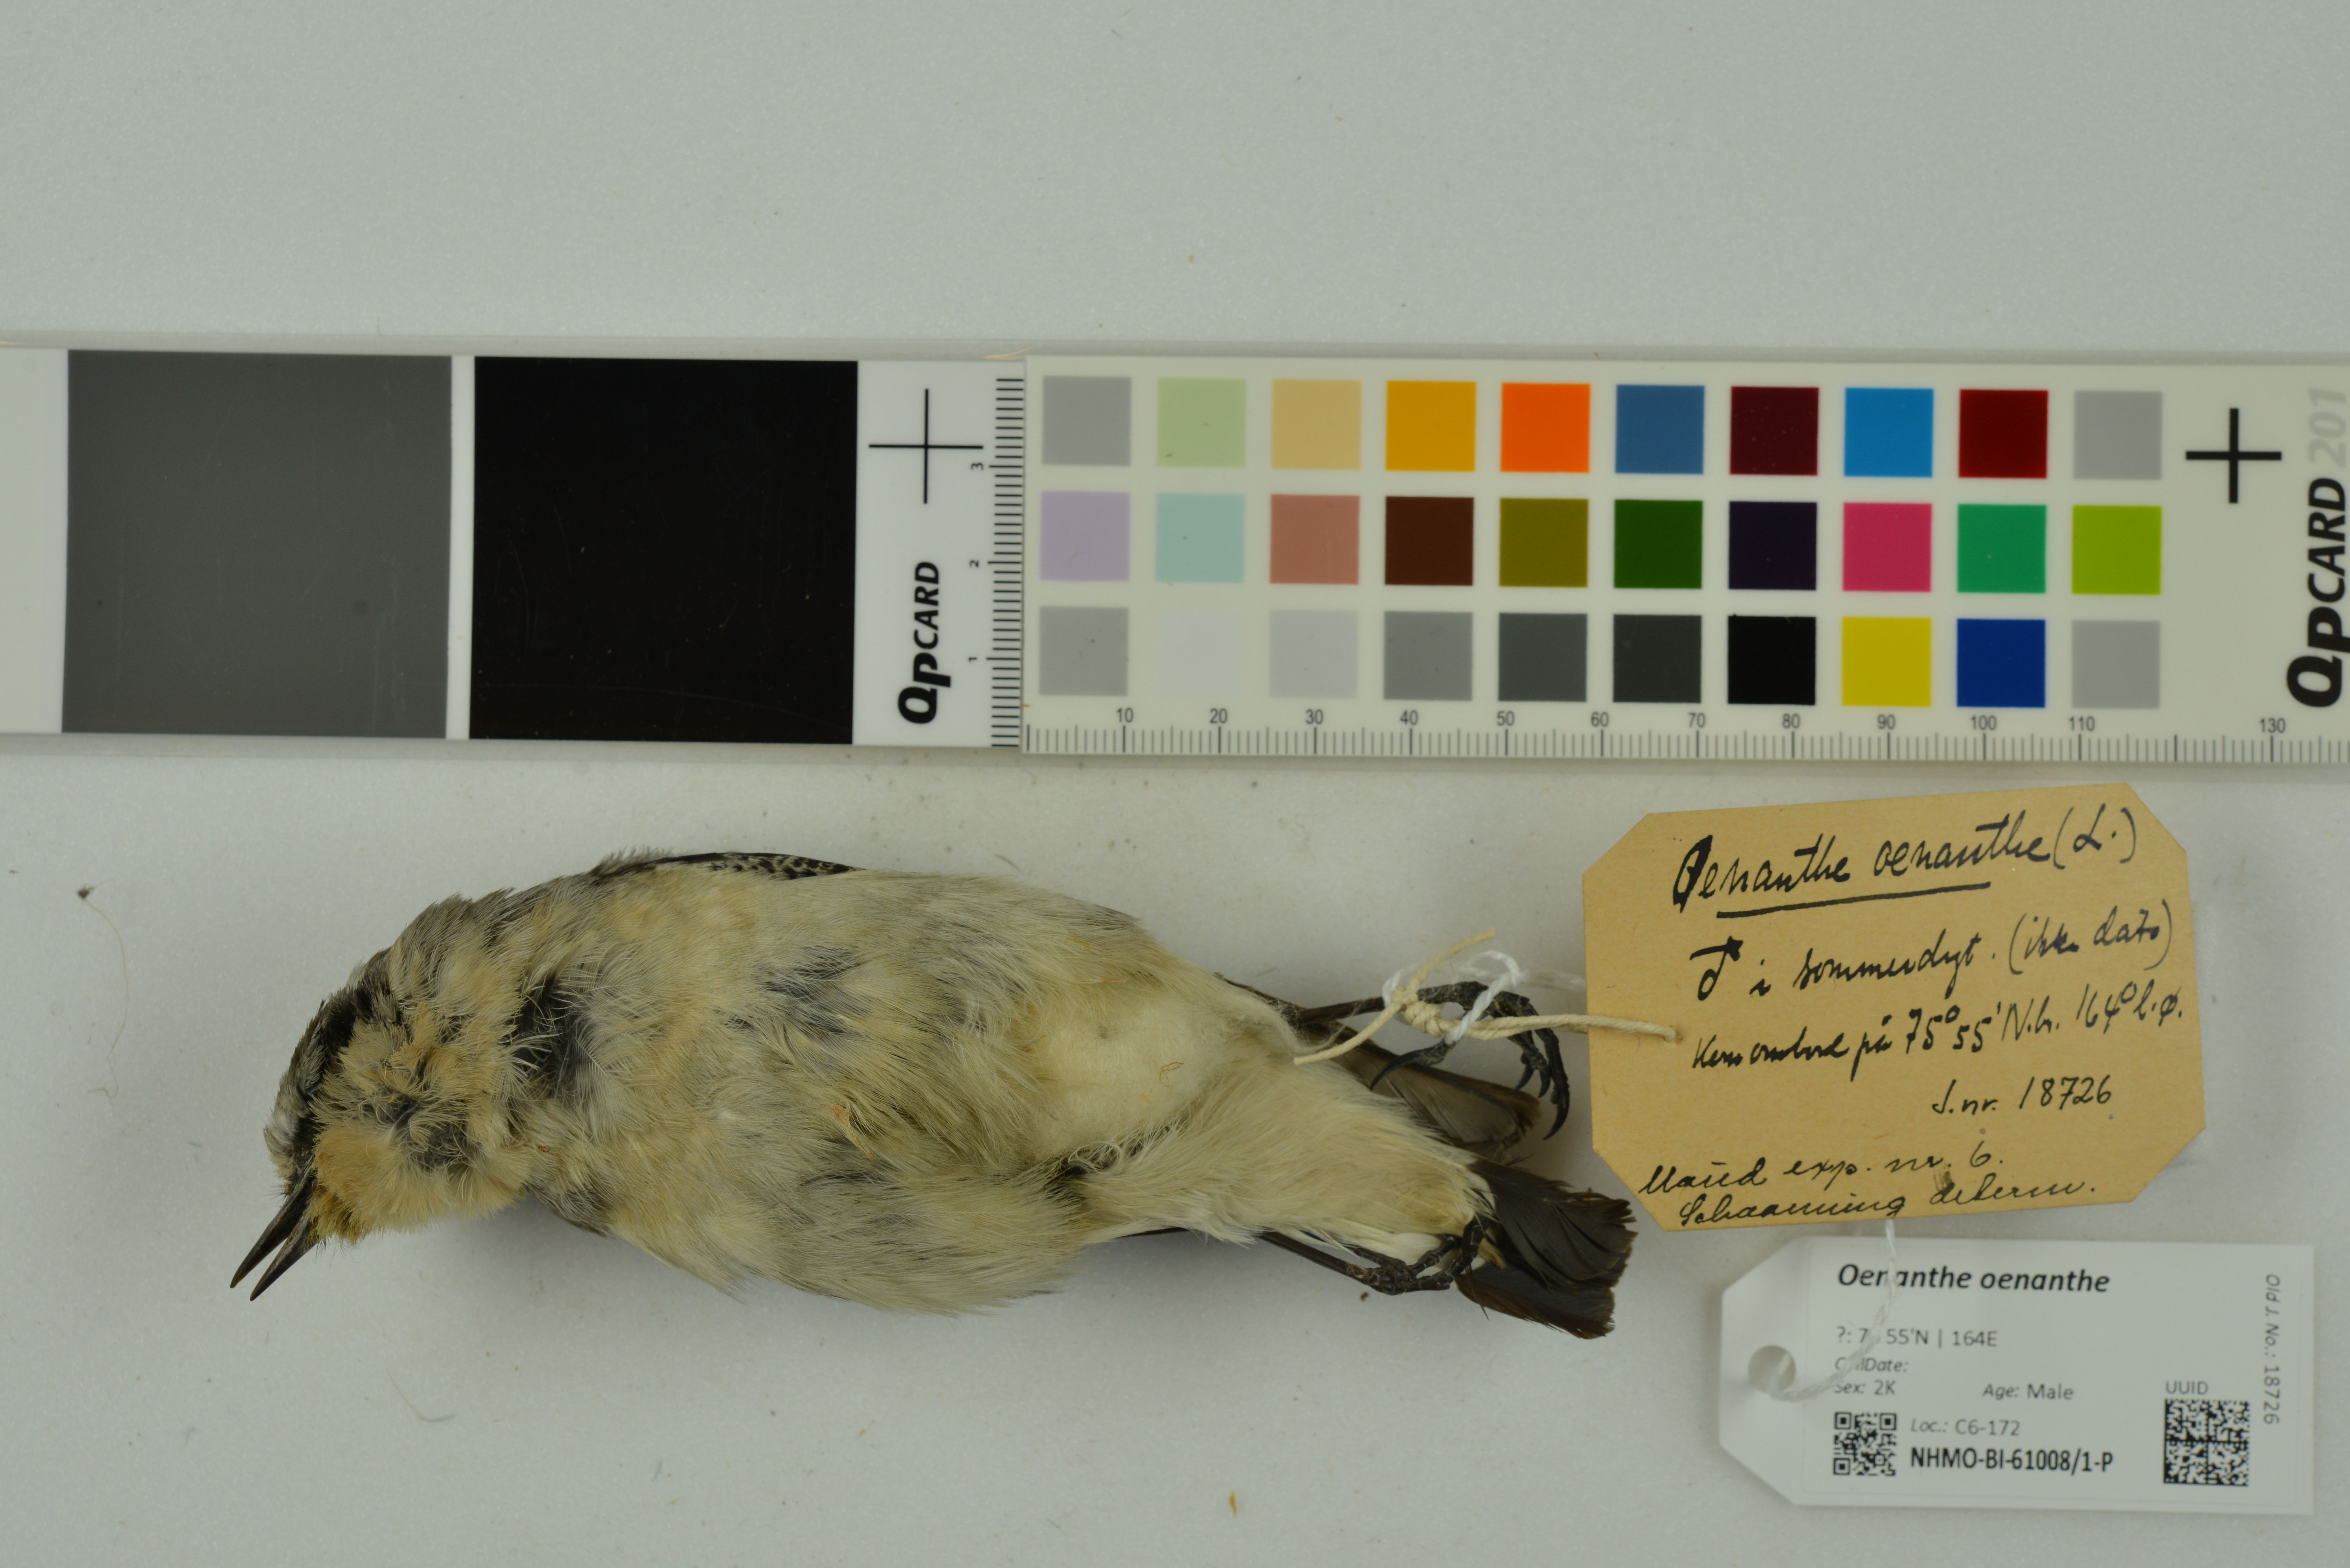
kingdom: Animalia
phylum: Chordata
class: Aves
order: Passeriformes
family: Muscicapidae
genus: Oenanthe
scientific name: Oenanthe oenanthe
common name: Northern wheatear
